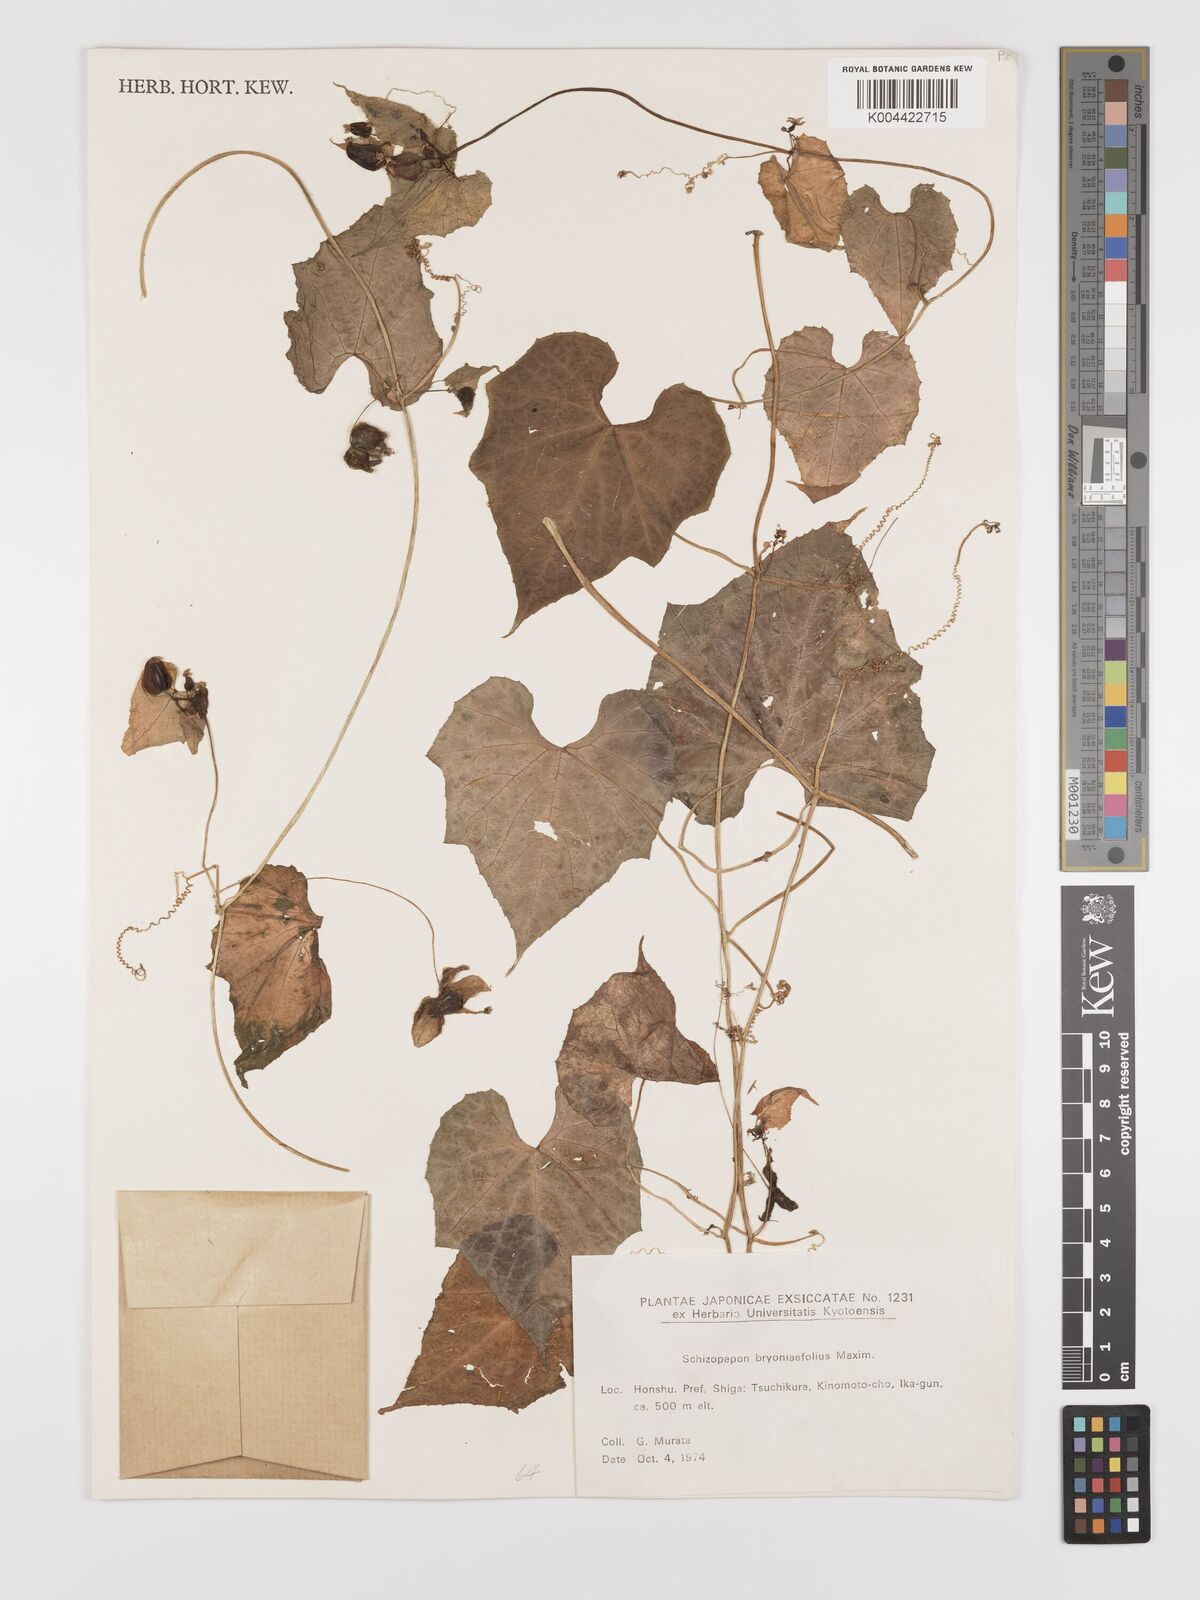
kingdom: Plantae
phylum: Tracheophyta
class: Magnoliopsida
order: Cucurbitales
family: Cucurbitaceae
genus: Schizopepon
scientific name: Schizopepon bryoniifolius
